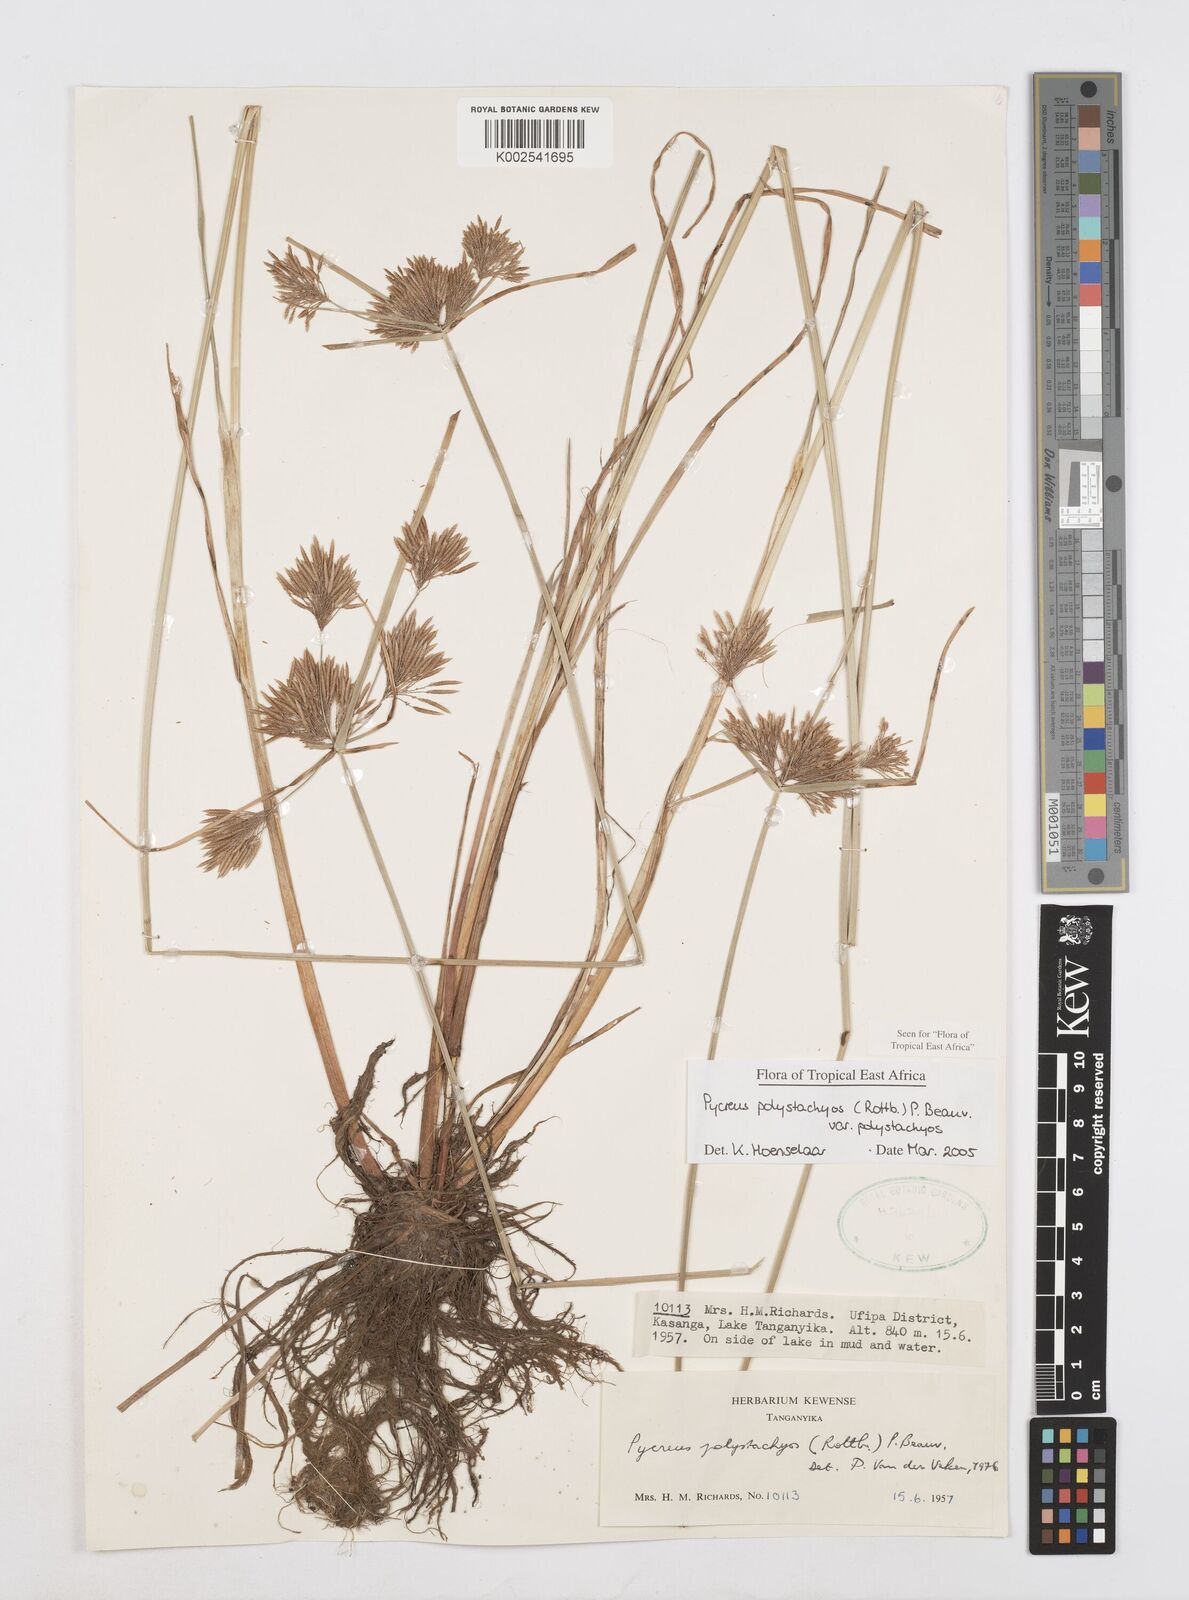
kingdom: Plantae
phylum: Tracheophyta
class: Liliopsida
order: Poales
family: Cyperaceae
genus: Cyperus
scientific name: Cyperus polystachyos
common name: Bunchy flat sedge
